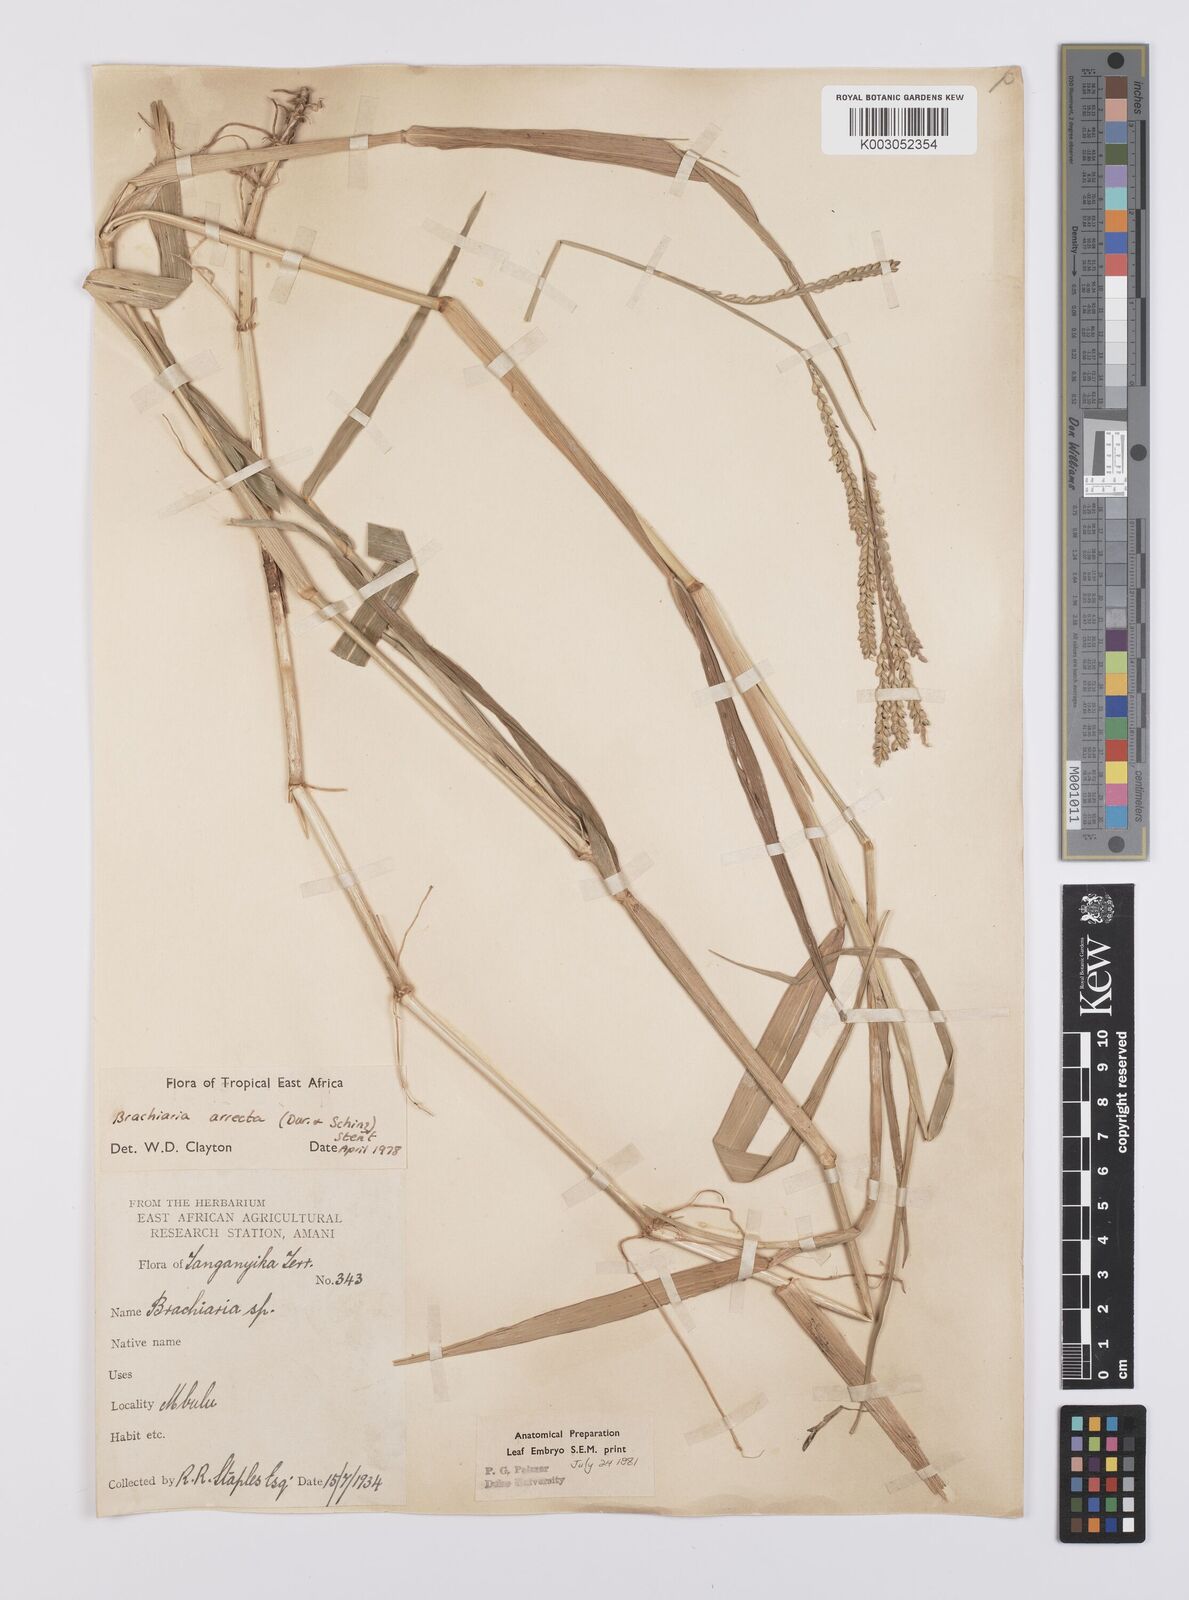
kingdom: Plantae
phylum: Tracheophyta
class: Liliopsida
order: Poales
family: Poaceae
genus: Urochloa
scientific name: Urochloa arrecta
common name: African signalgrass
